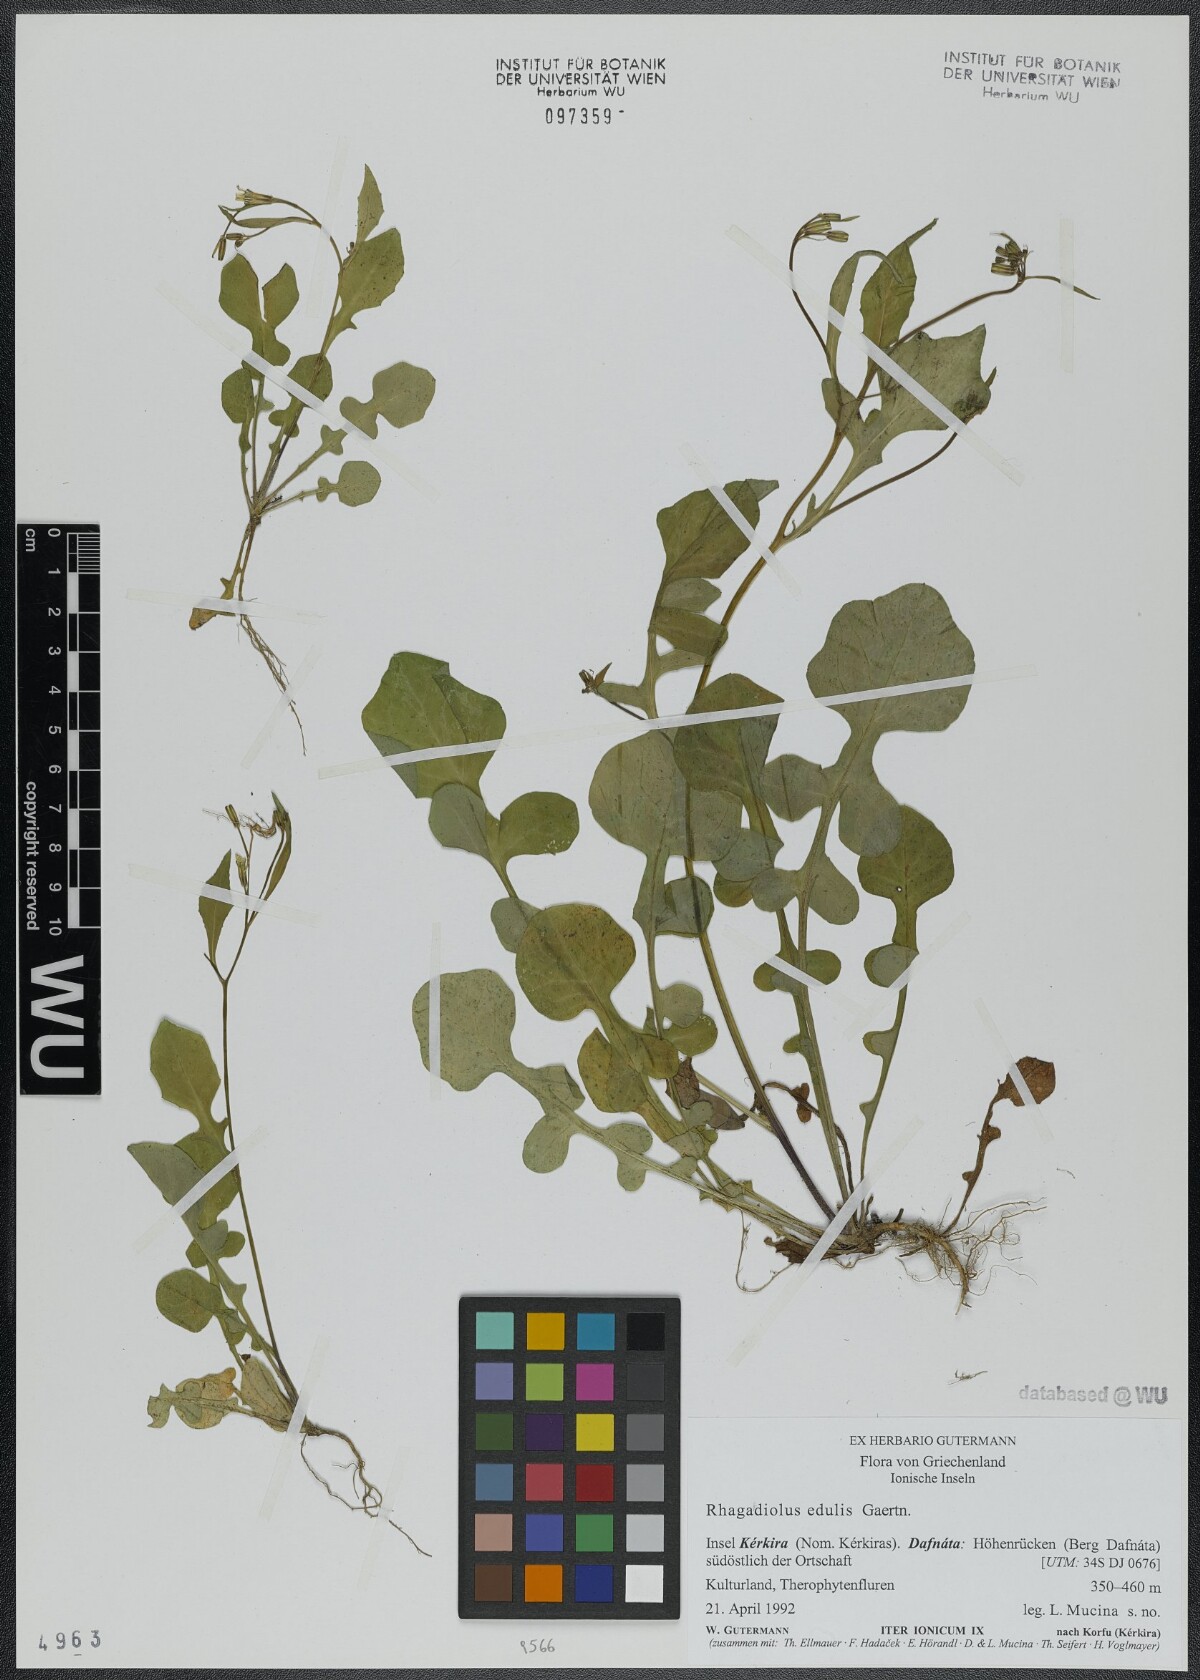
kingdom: Plantae
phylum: Tracheophyta
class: Magnoliopsida
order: Asterales
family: Asteraceae
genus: Rhagadiolus
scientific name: Rhagadiolus edulis
